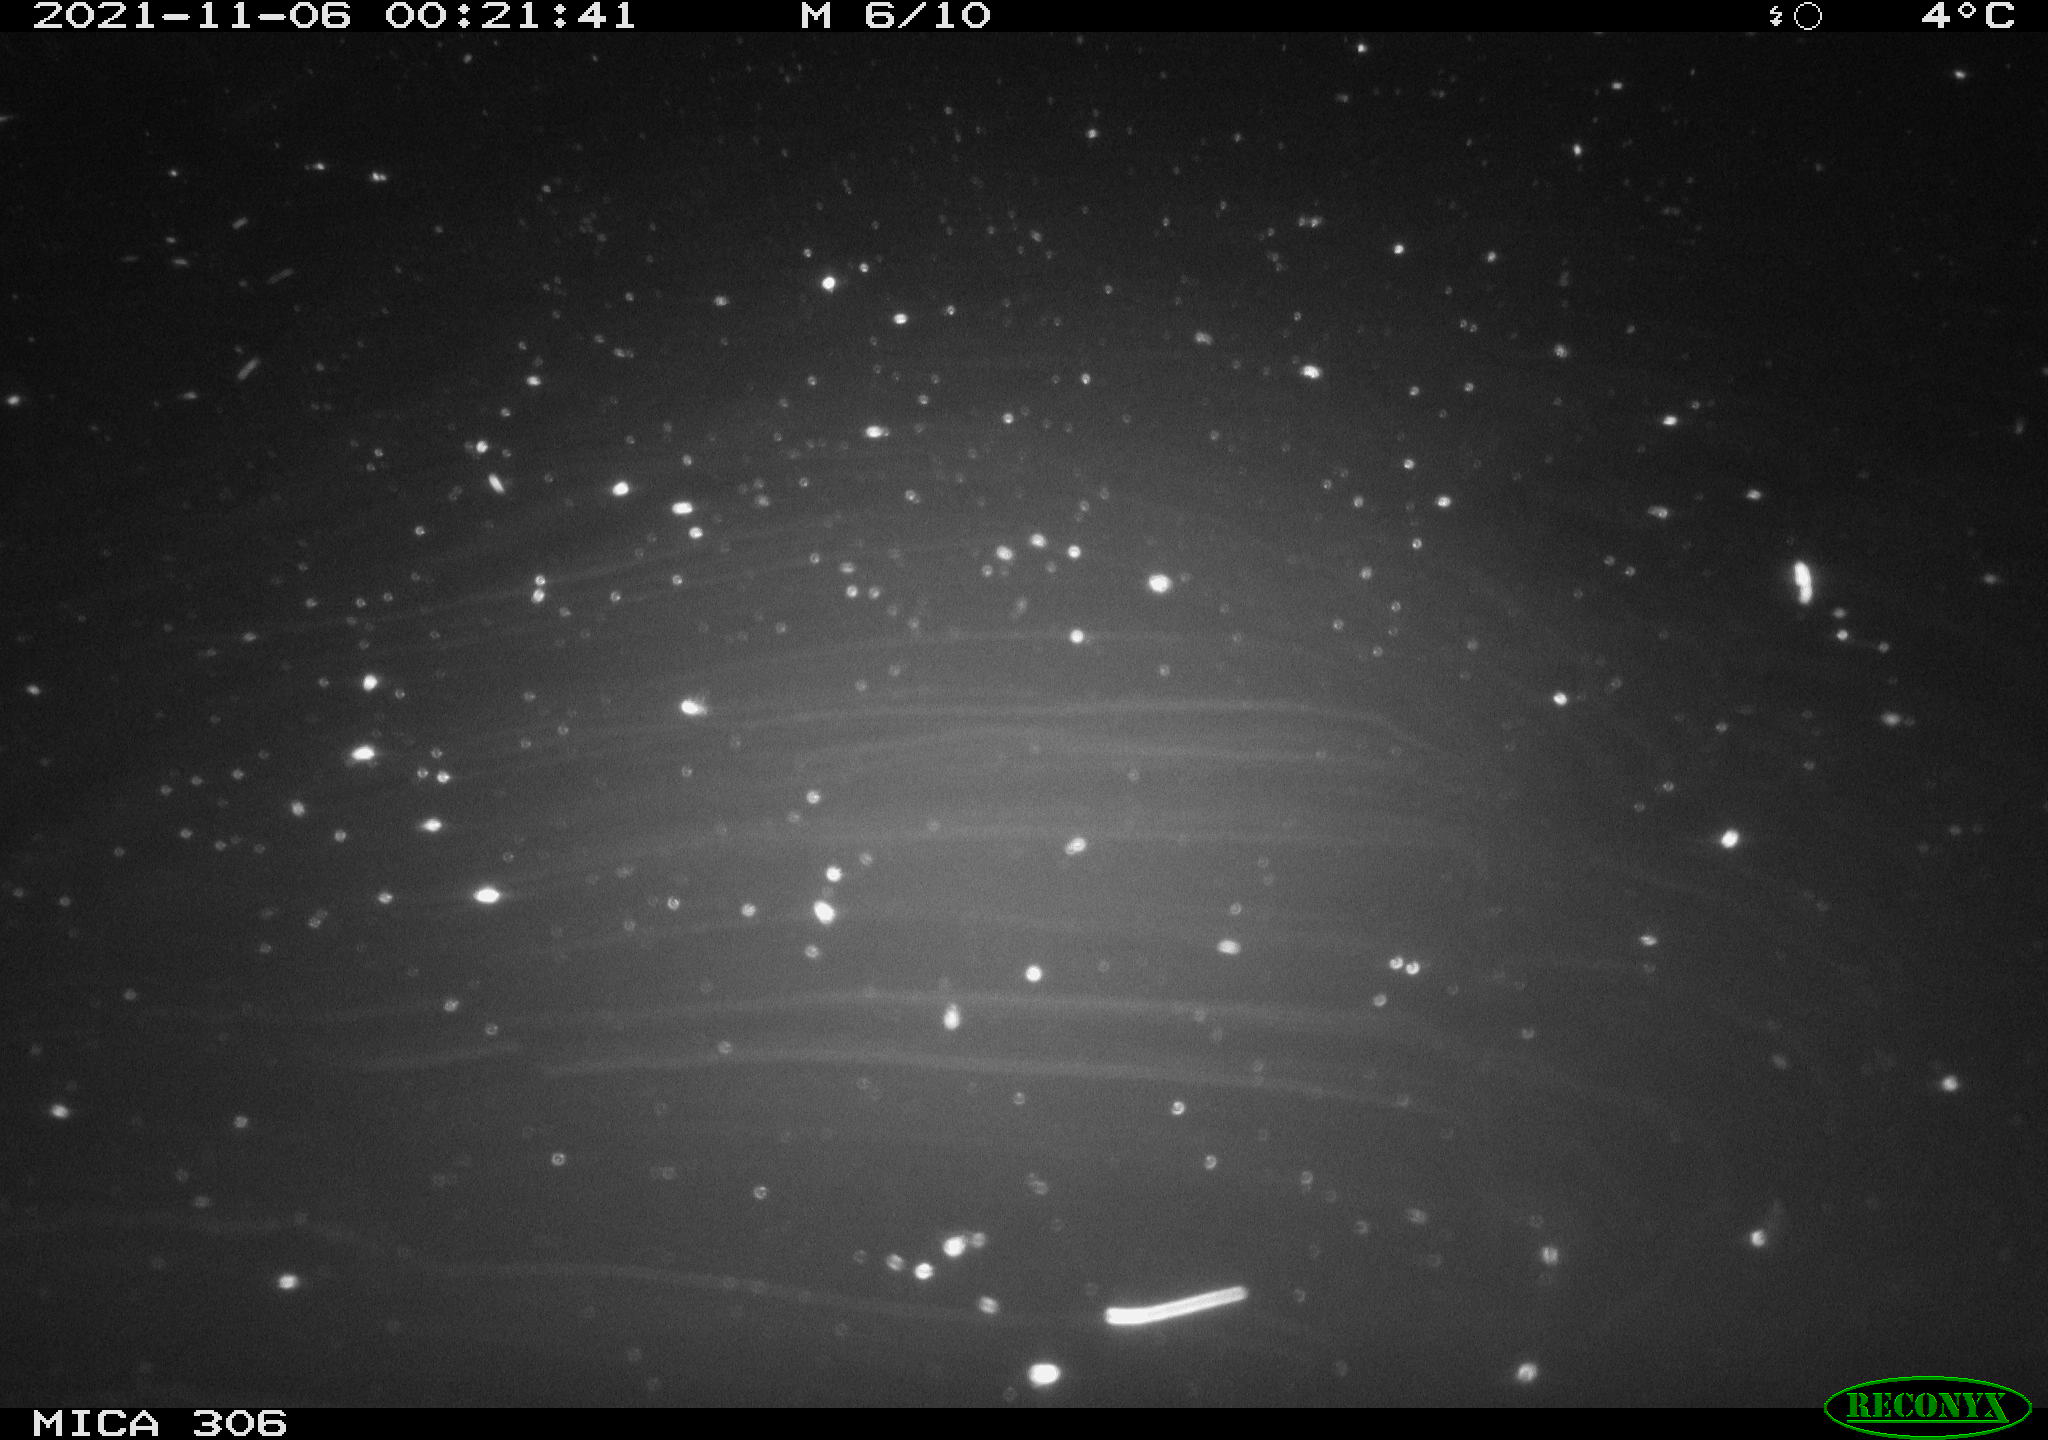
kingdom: Animalia
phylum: Chordata
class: Mammalia
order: Rodentia
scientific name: Rodentia
